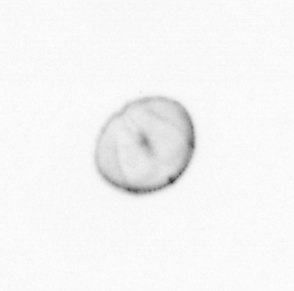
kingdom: Chromista
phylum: Myzozoa
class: Dinophyceae
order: Noctilucales
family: Noctilucaceae
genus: Noctiluca
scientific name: Noctiluca scintillans
